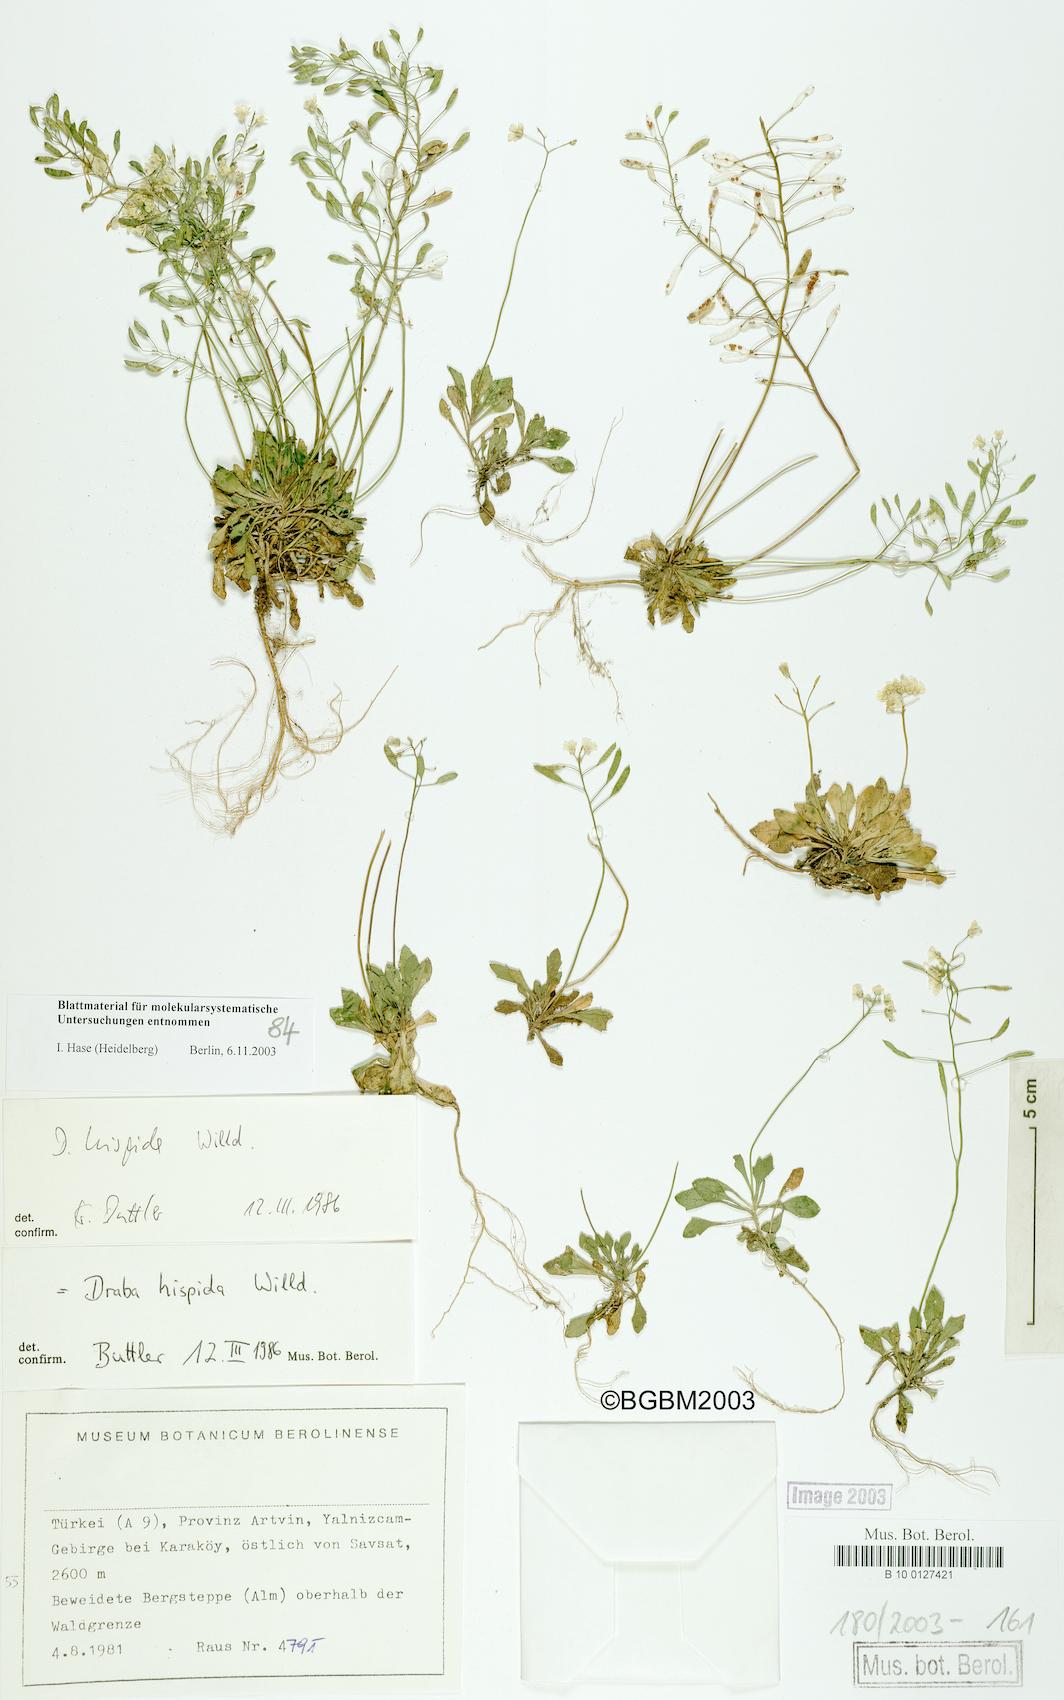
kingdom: Plantae
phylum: Tracheophyta
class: Magnoliopsida
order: Brassicales
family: Brassicaceae
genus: Draba
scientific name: Draba hispida
